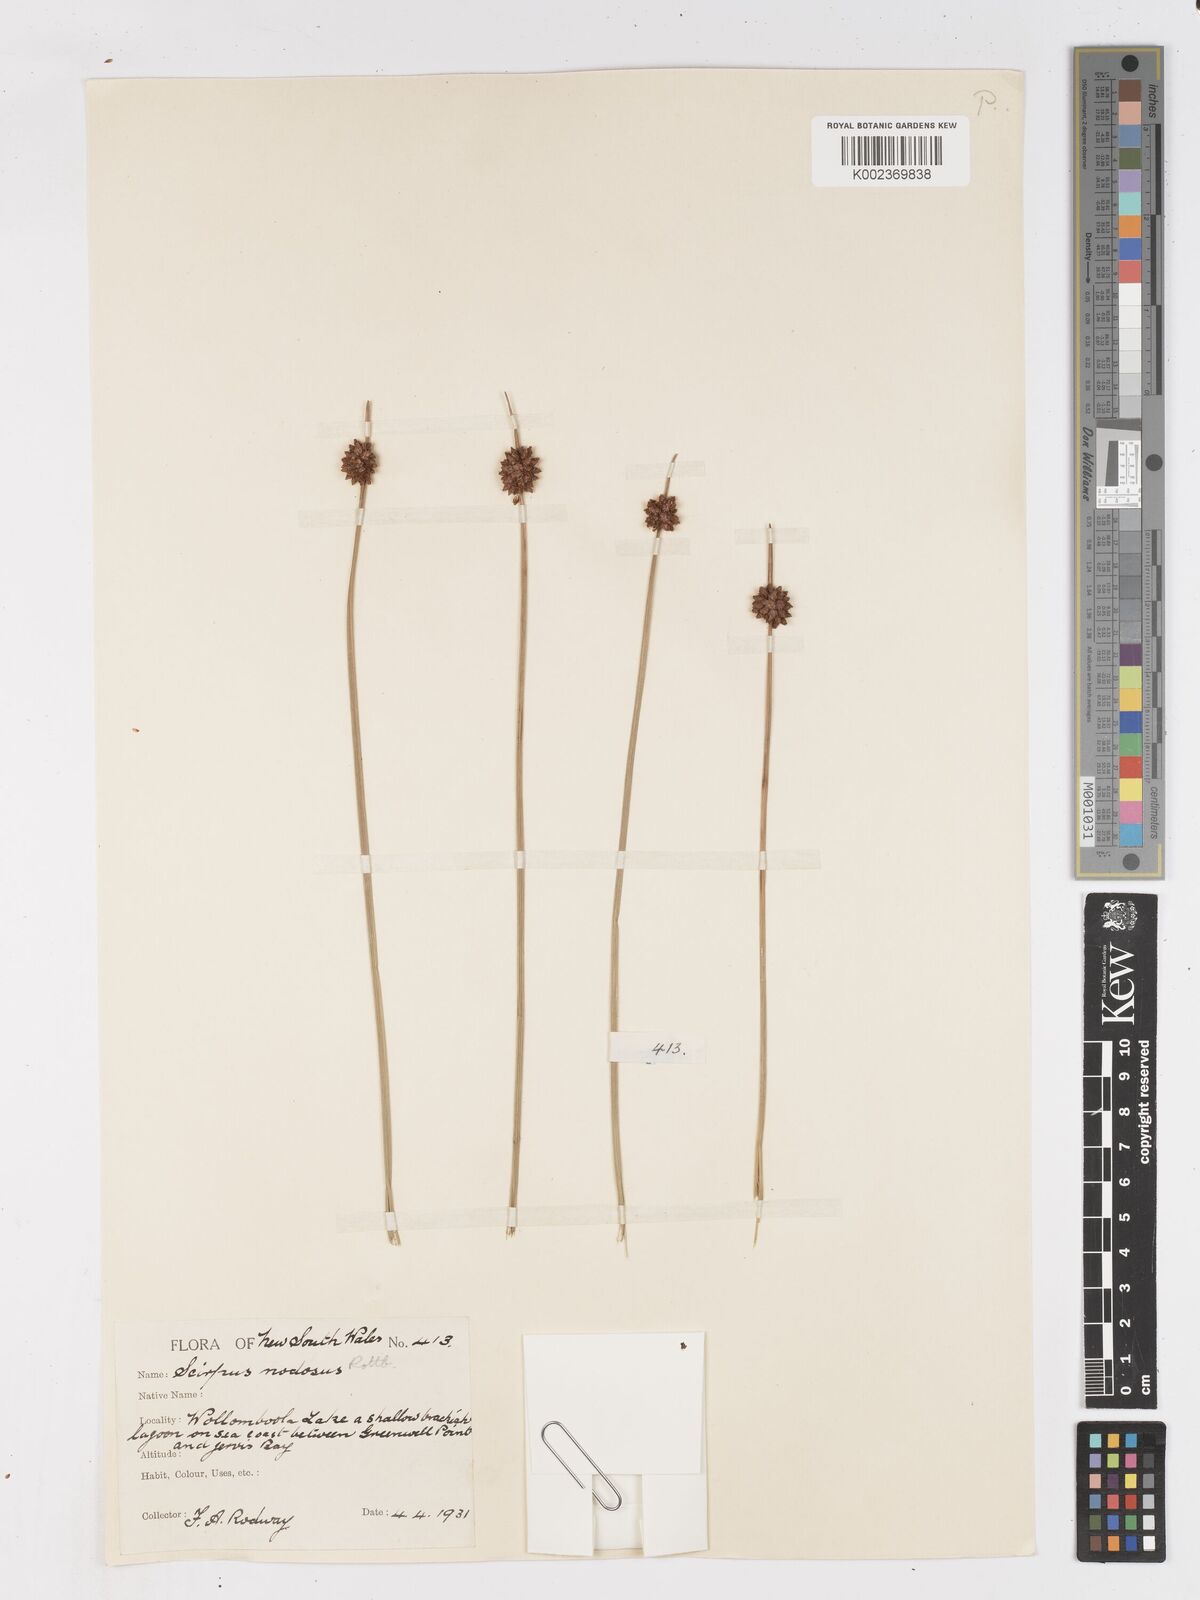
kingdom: Plantae
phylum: Tracheophyta
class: Liliopsida
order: Poales
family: Cyperaceae
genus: Ficinia
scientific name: Ficinia nodosa
